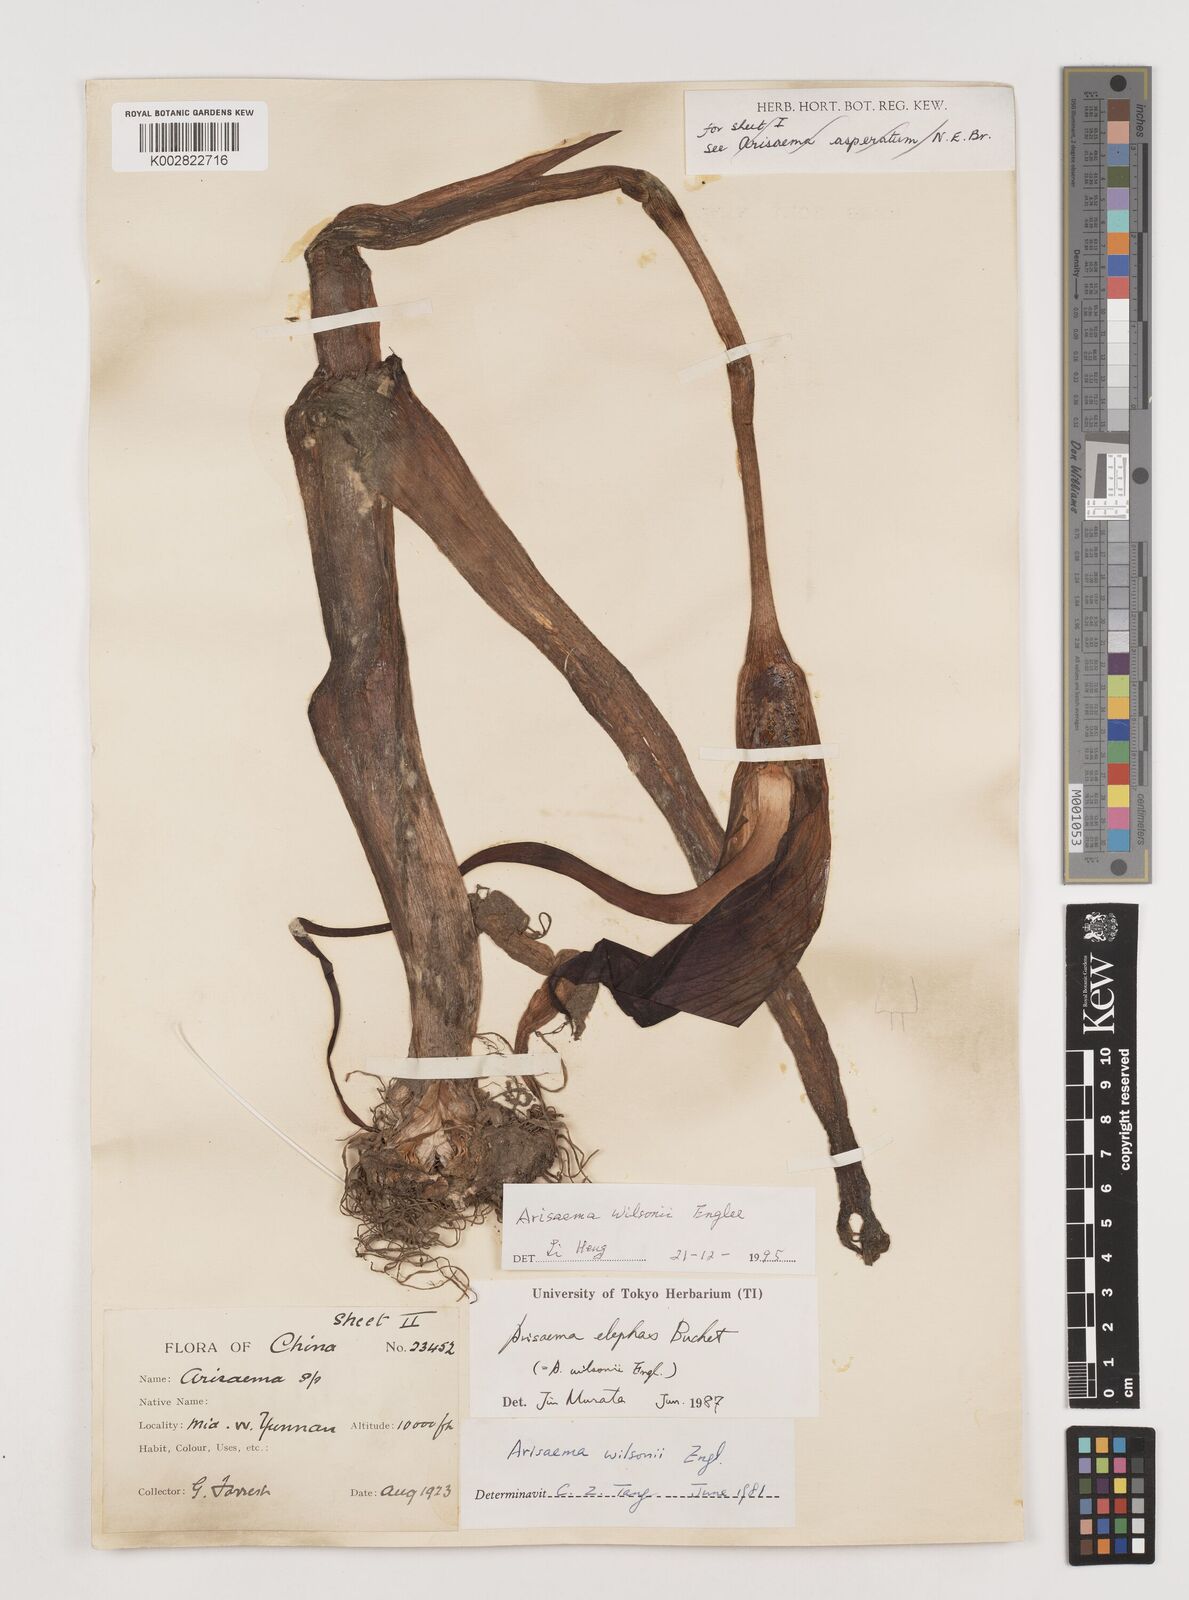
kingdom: Plantae
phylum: Tracheophyta
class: Liliopsida
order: Alismatales
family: Araceae
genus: Arisaema
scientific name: Arisaema wilsonii
